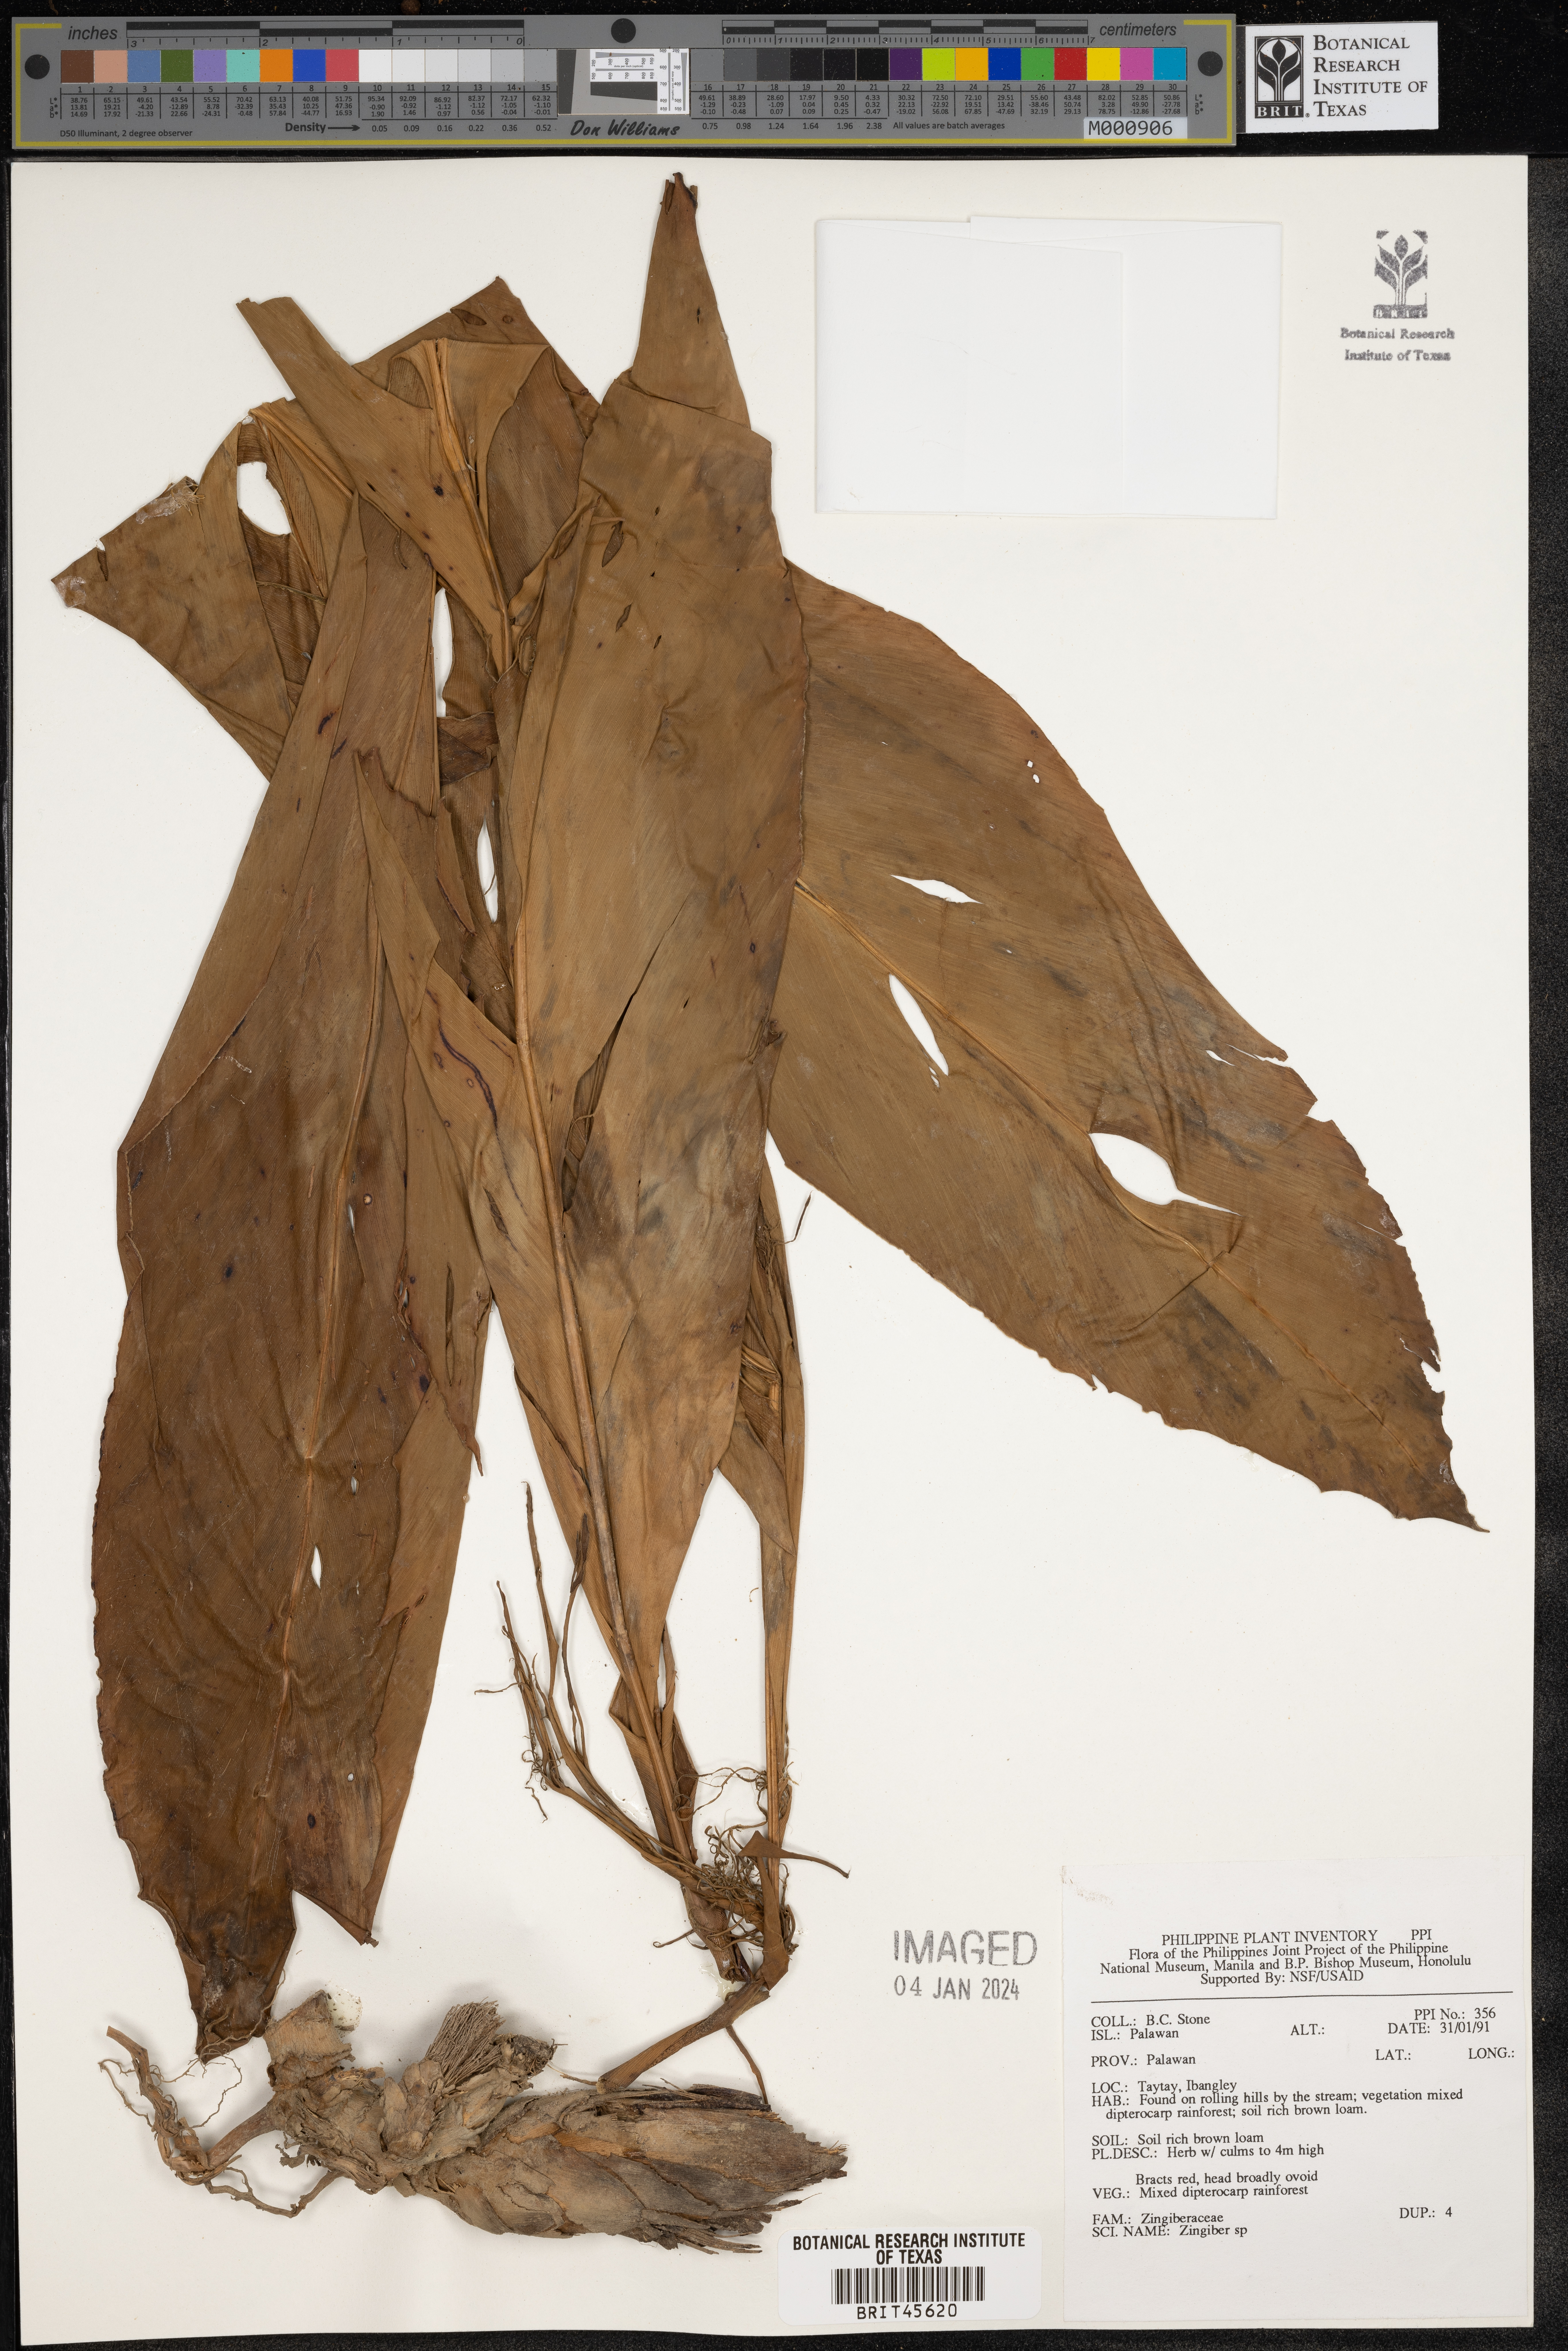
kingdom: Plantae
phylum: Tracheophyta
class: Liliopsida
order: Zingiberales
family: Zingiberaceae
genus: Zingiber
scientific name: Zingiber
